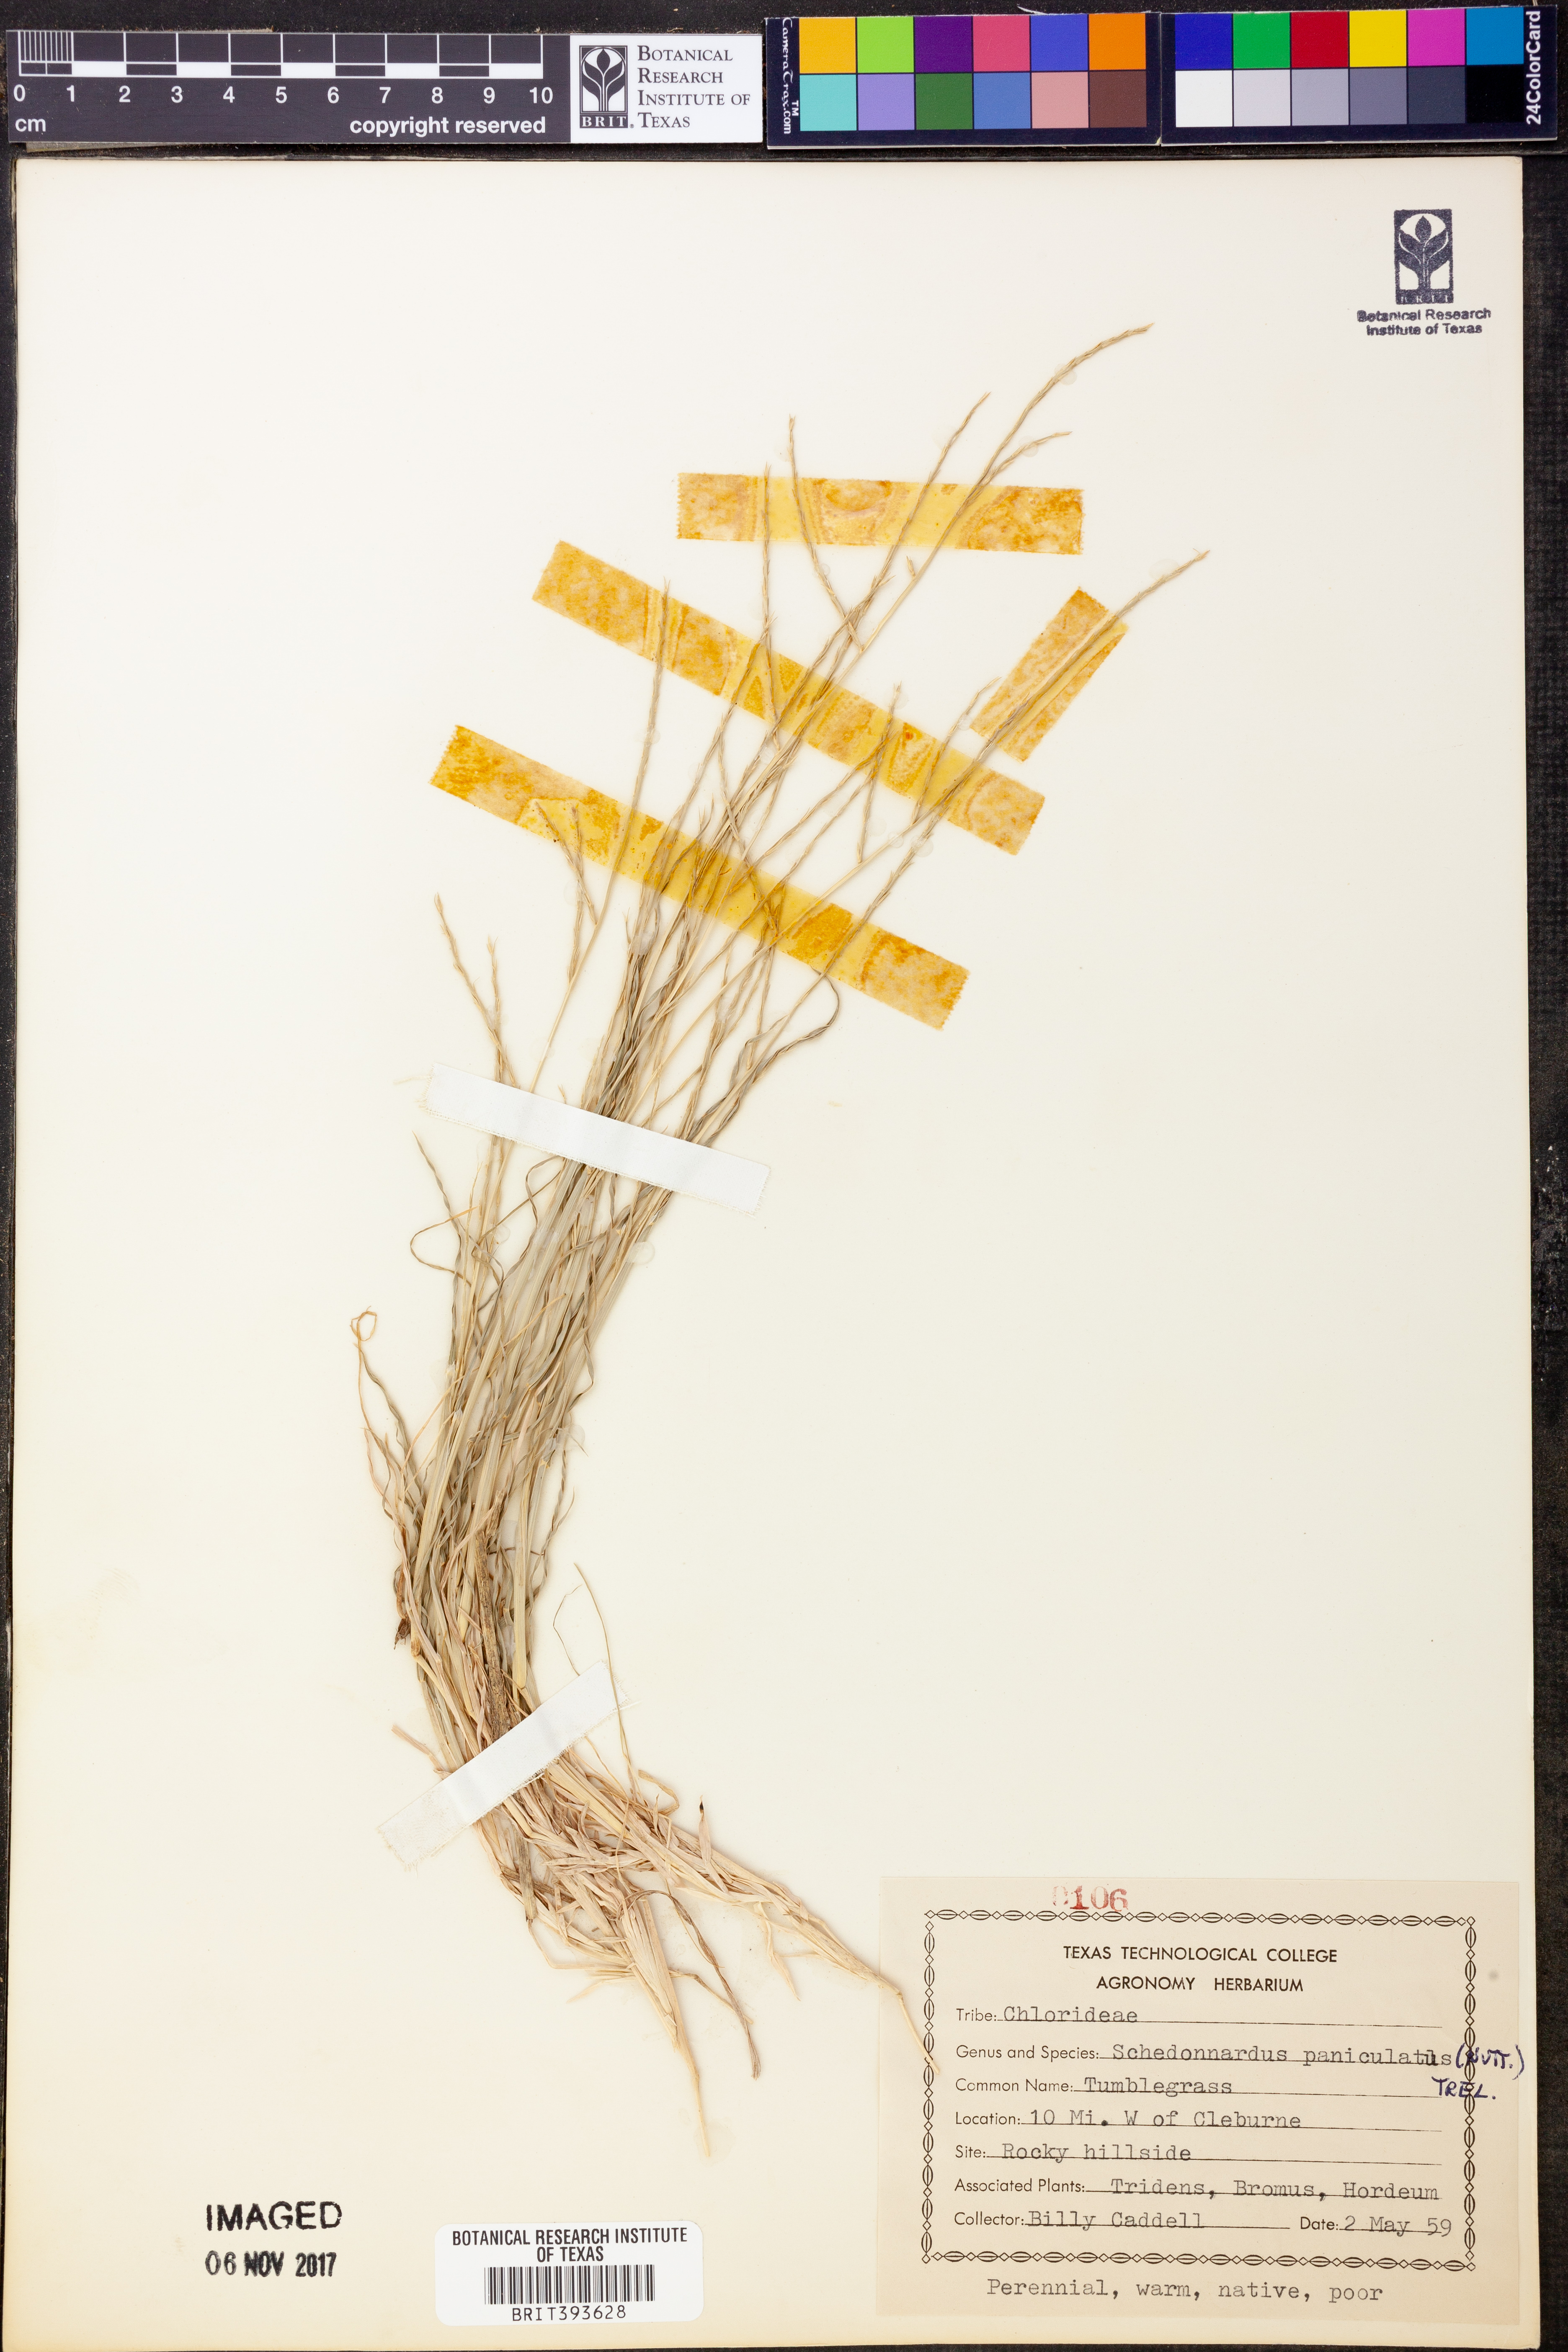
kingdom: Plantae
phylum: Tracheophyta
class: Liliopsida
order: Poales
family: Poaceae
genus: Muhlenbergia
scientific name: Muhlenbergia paniculata
